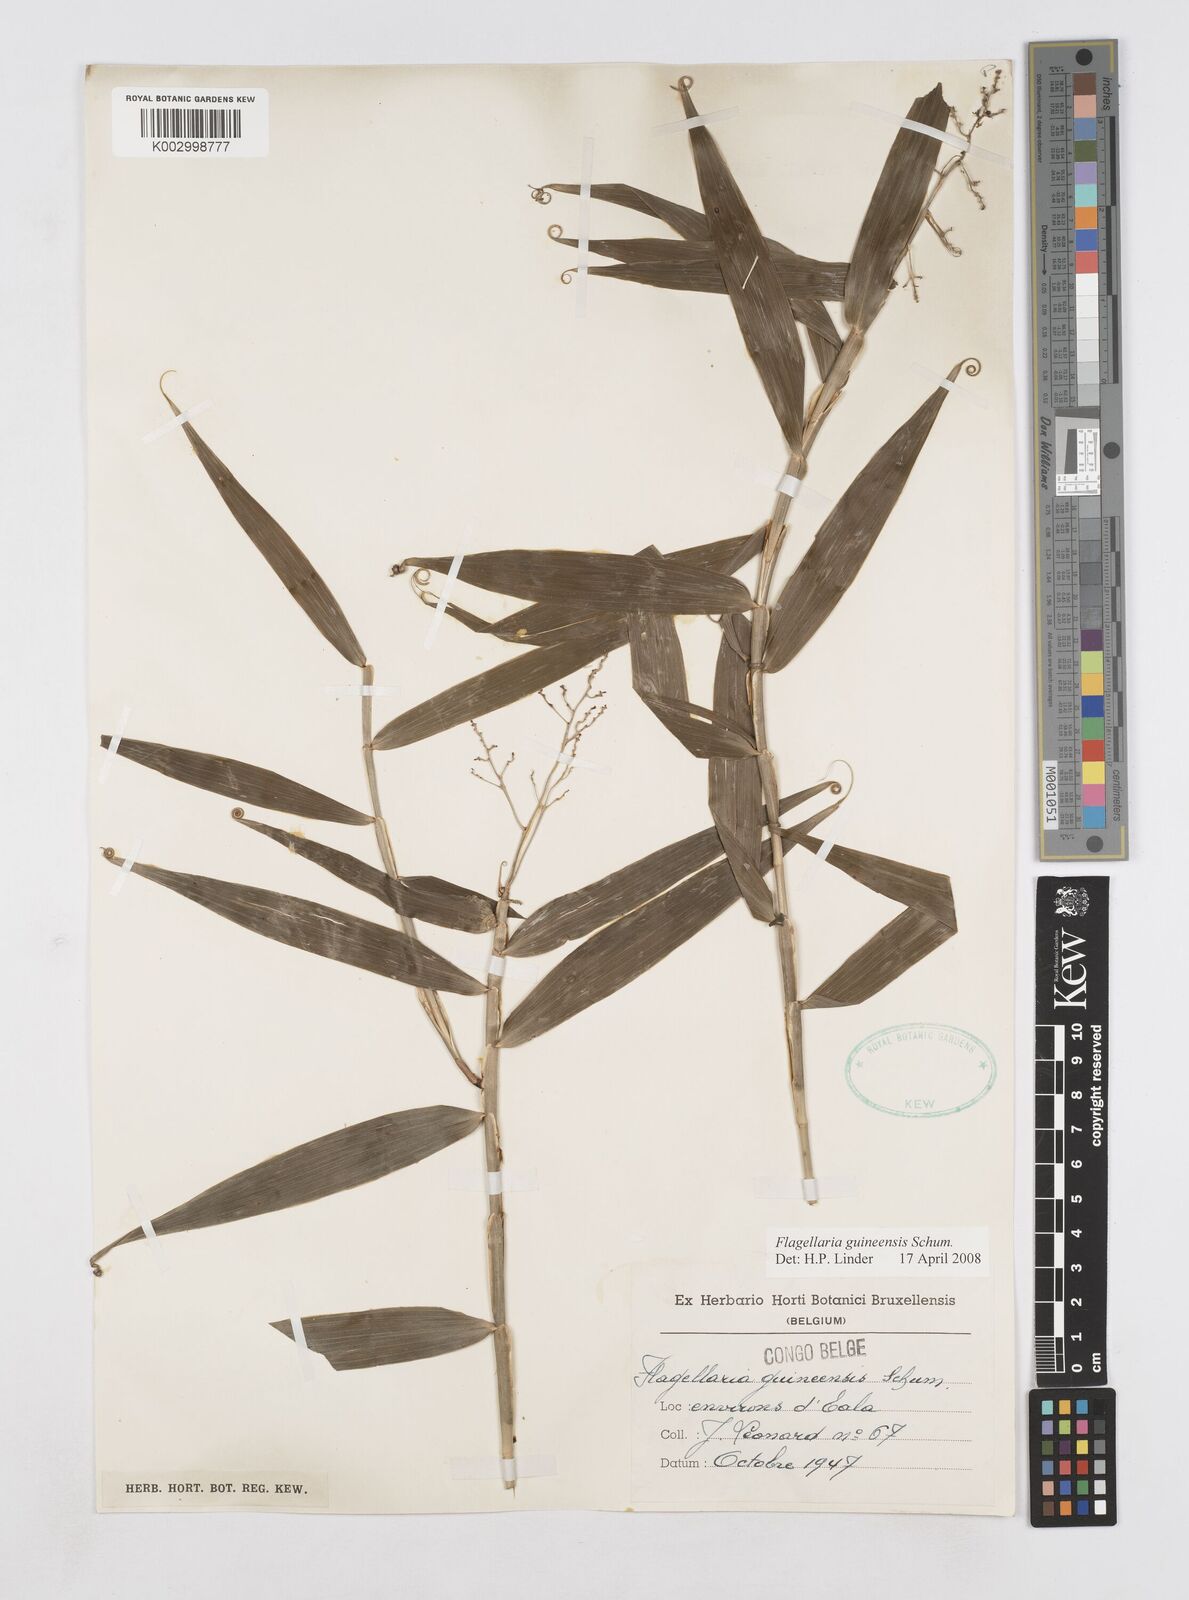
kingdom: Plantae
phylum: Tracheophyta
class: Liliopsida
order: Poales
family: Flagellariaceae
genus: Flagellaria
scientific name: Flagellaria guineensis
